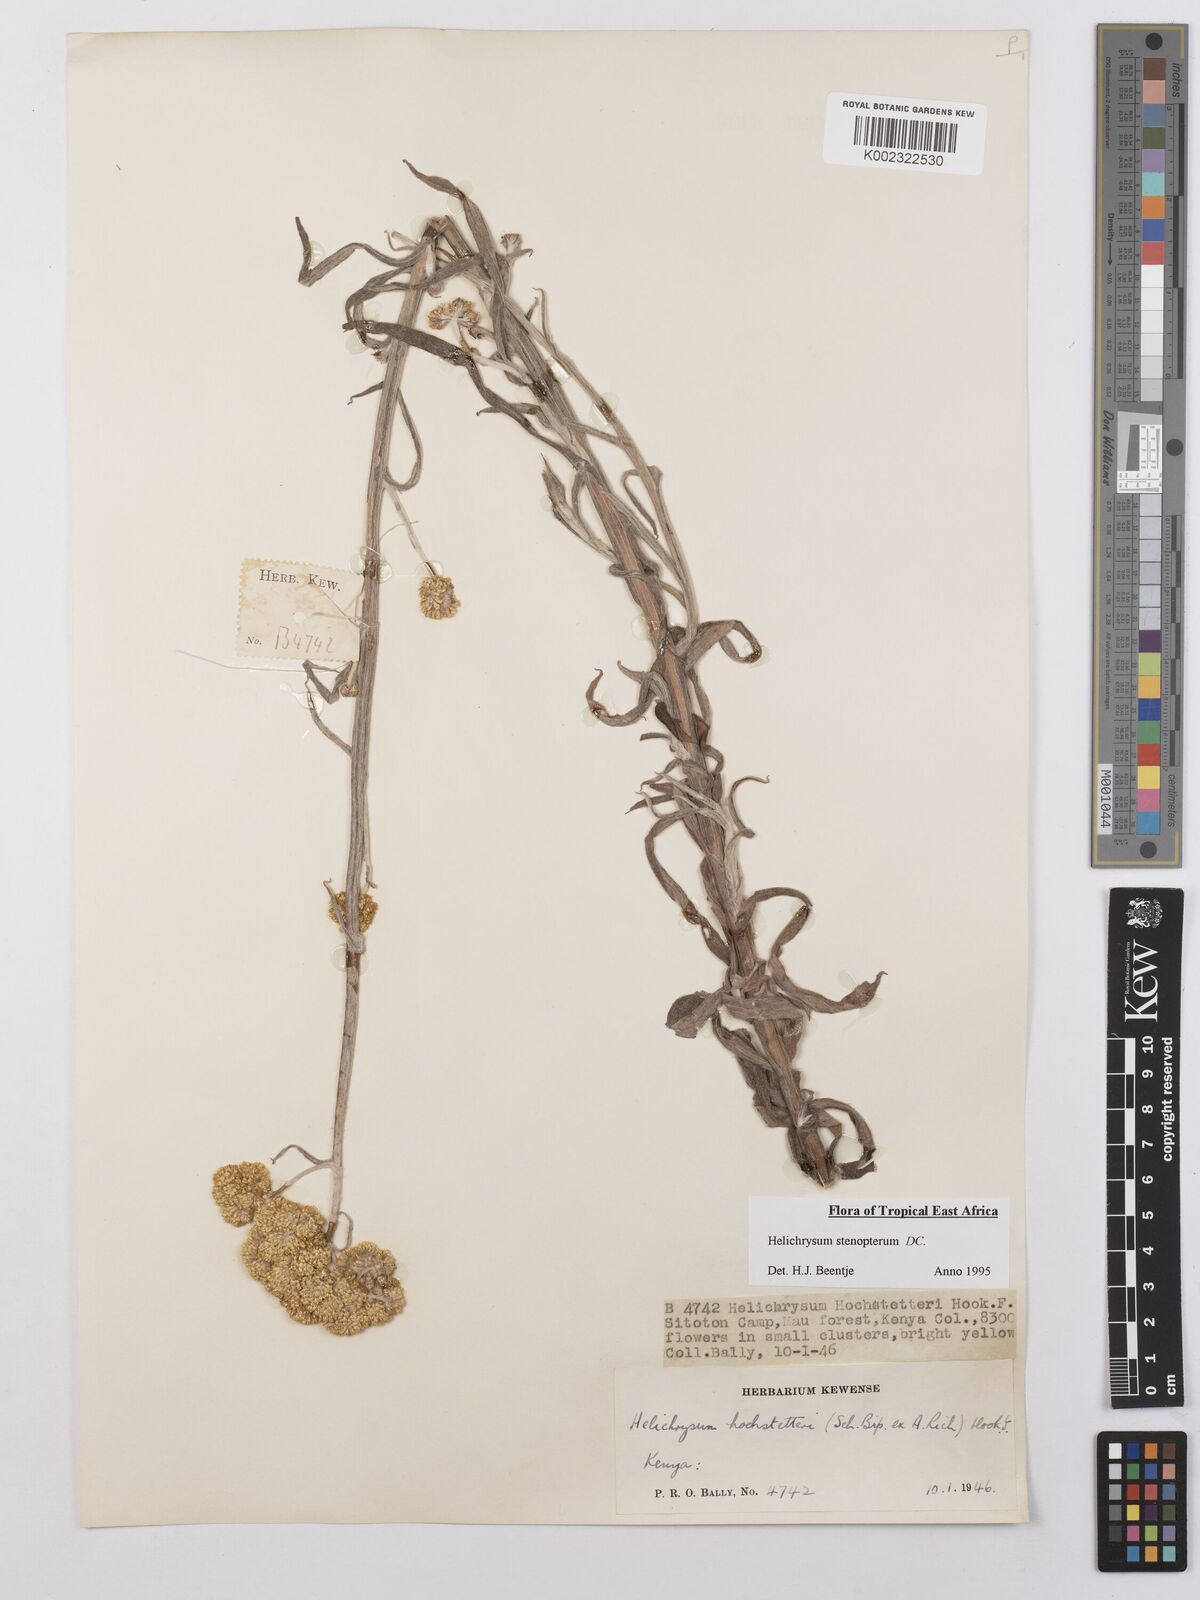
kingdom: Plantae
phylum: Tracheophyta
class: Magnoliopsida
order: Asterales
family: Asteraceae
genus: Helichrysum
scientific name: Helichrysum stenopterum
